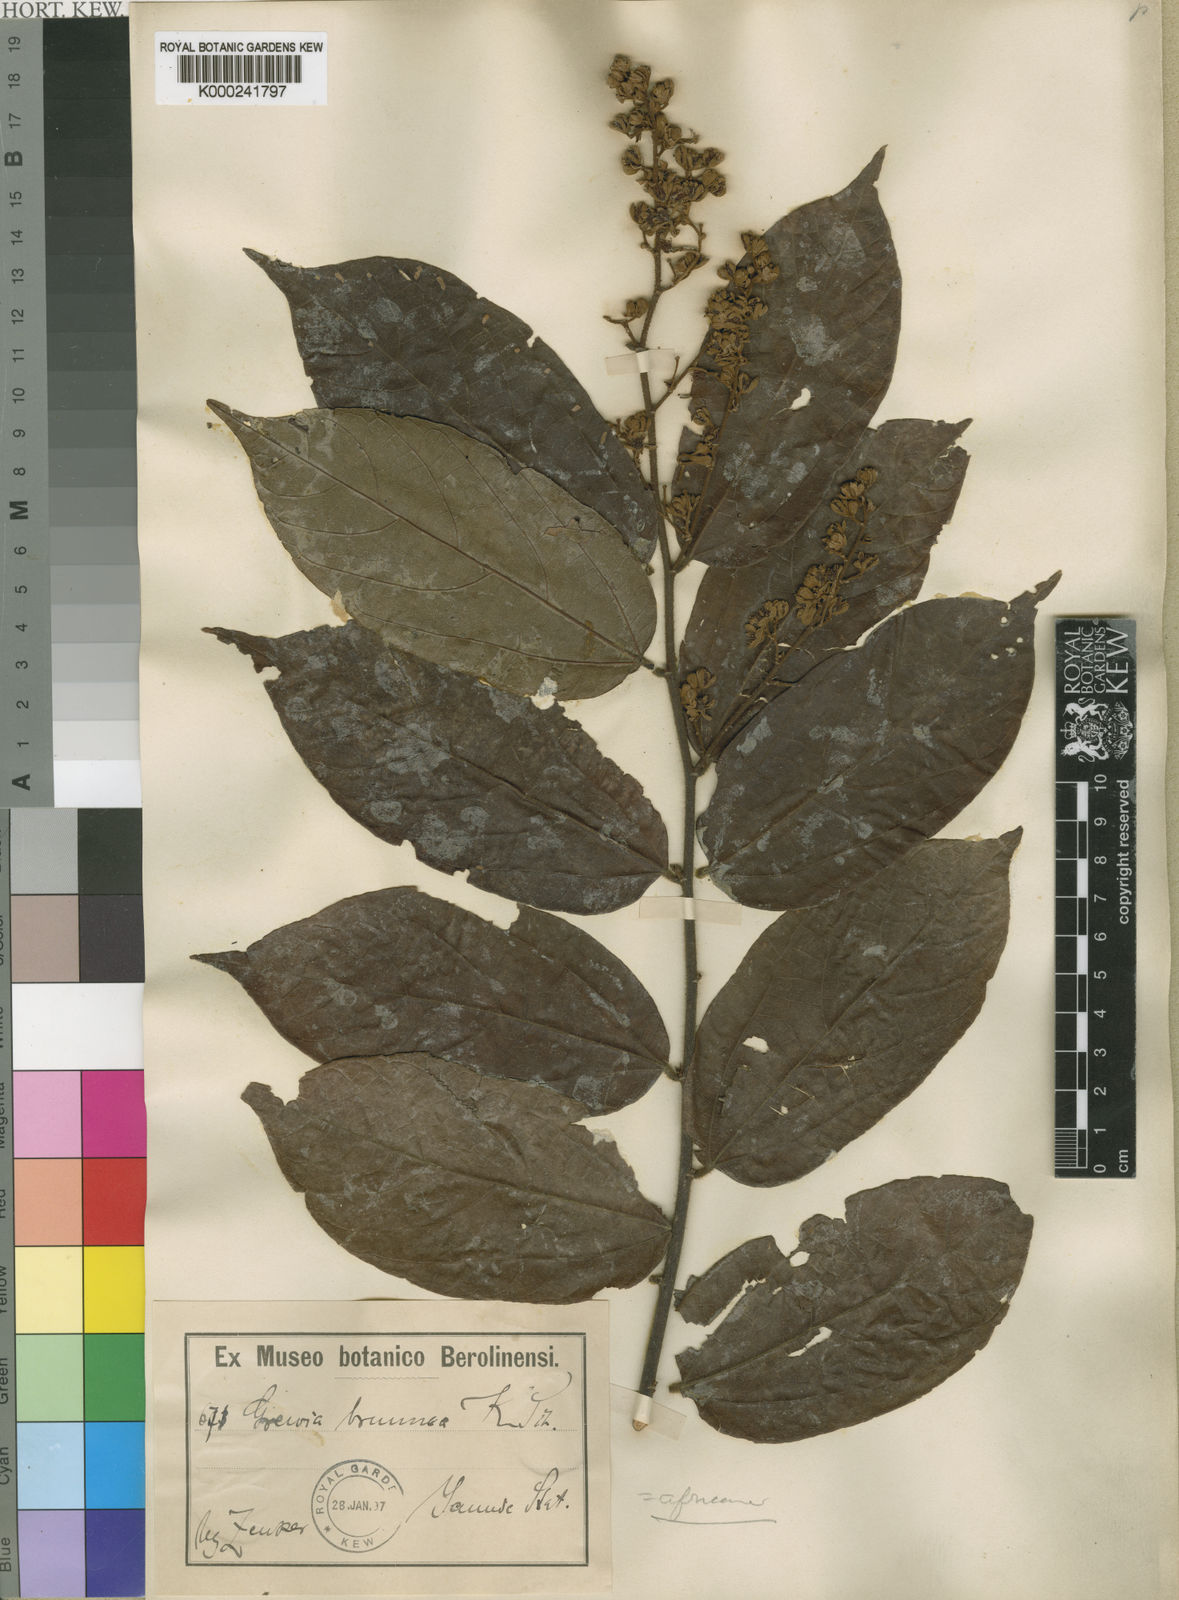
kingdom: Plantae
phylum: Tracheophyta
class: Magnoliopsida
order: Malvales
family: Malvaceae
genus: Microcos
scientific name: Microcos africana
